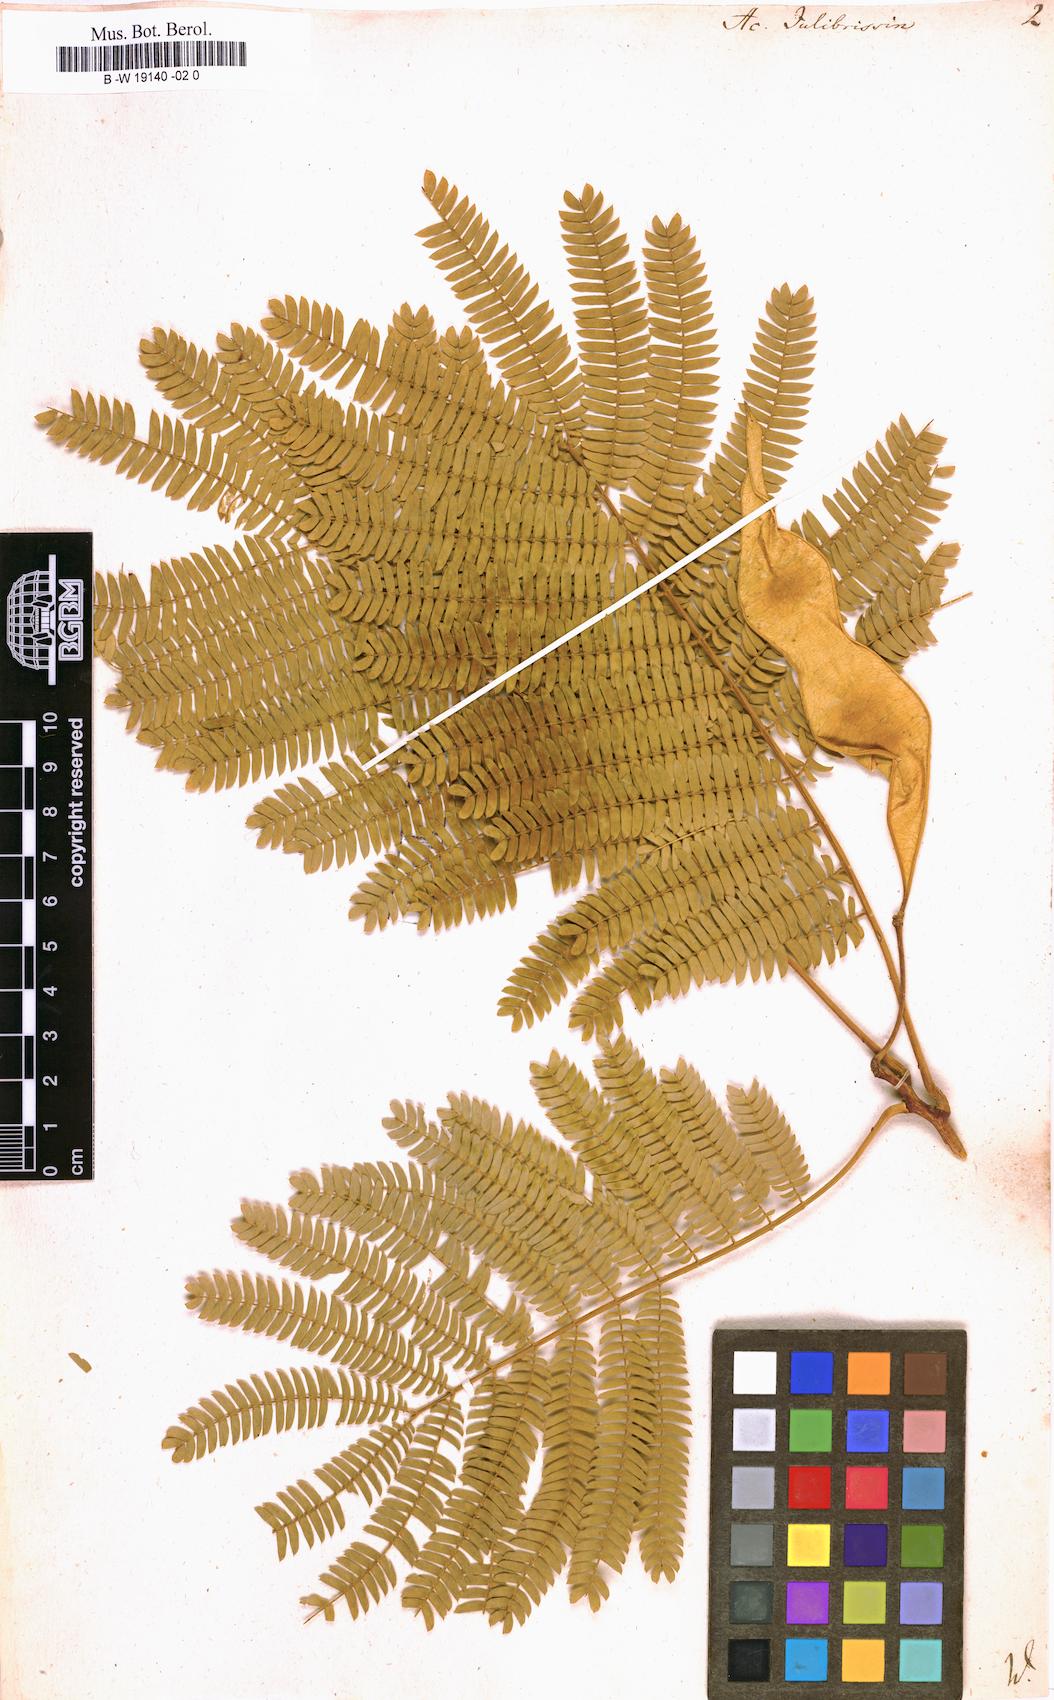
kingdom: Plantae
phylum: Tracheophyta
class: Magnoliopsida
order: Fabales
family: Fabaceae
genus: Albizia
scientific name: Albizia julibrissin
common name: Silktree
